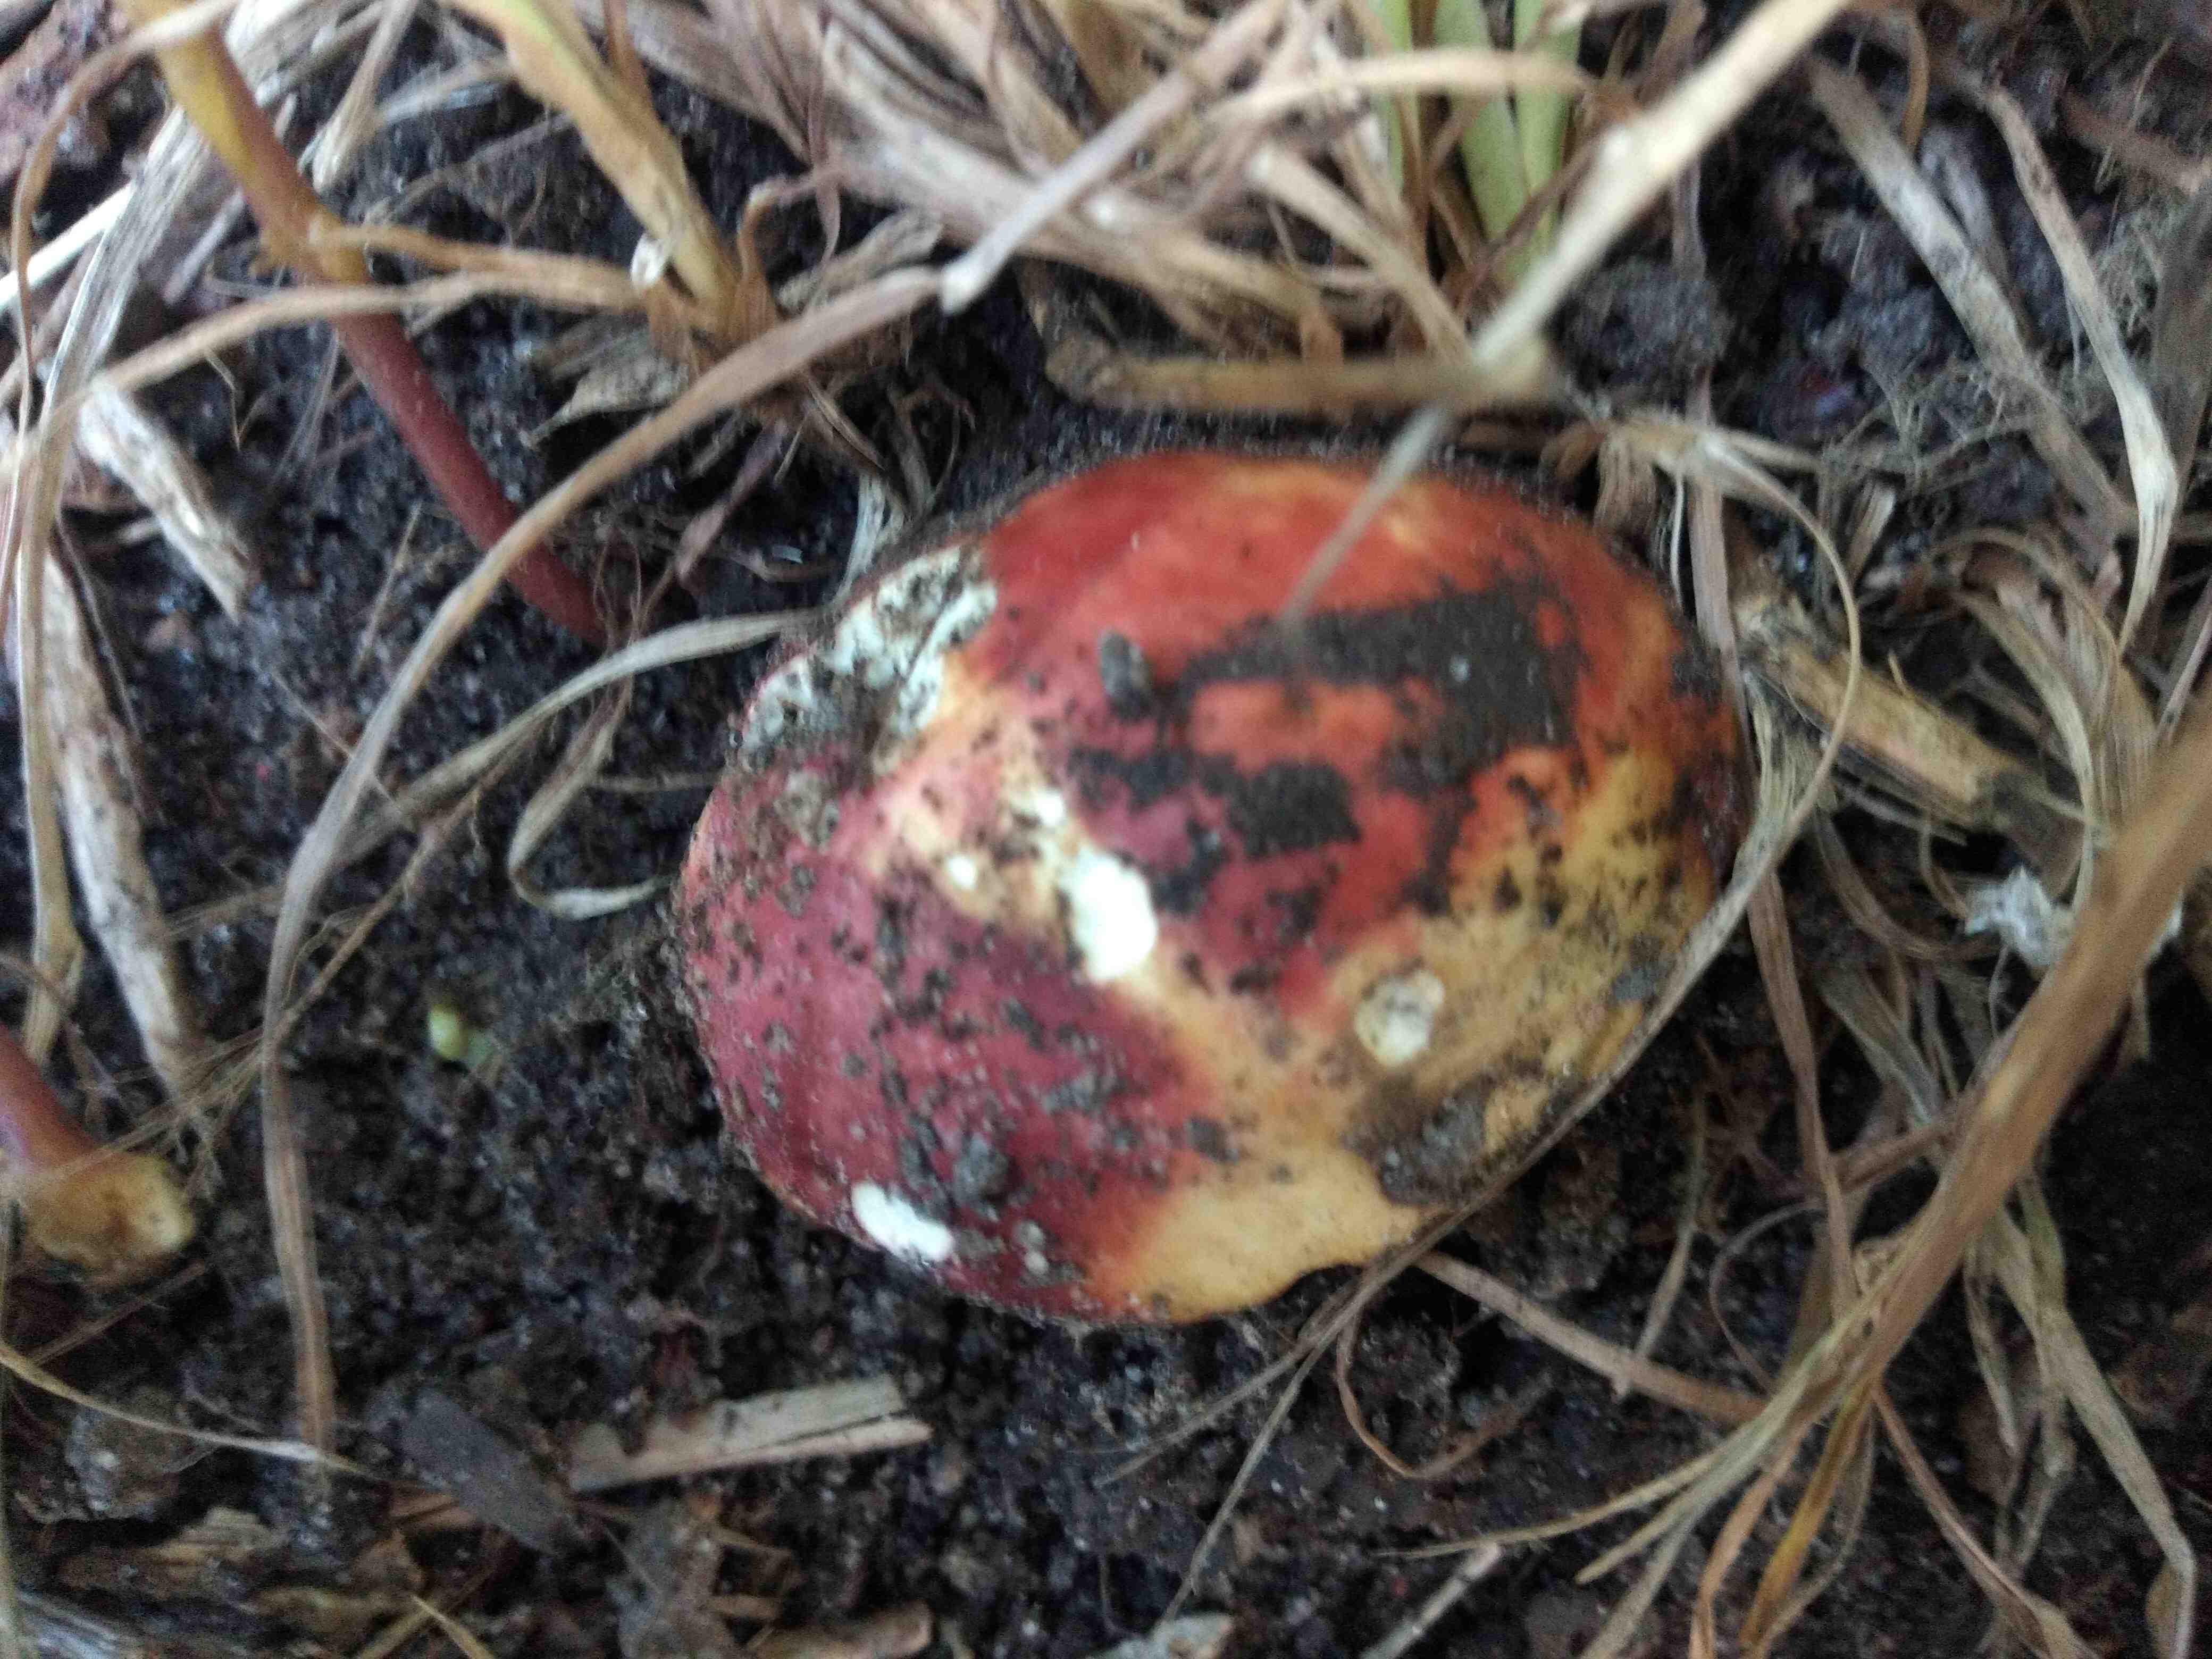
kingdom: Fungi
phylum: Basidiomycota
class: Agaricomycetes
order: Russulales
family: Russulaceae
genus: Russula
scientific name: Russula
